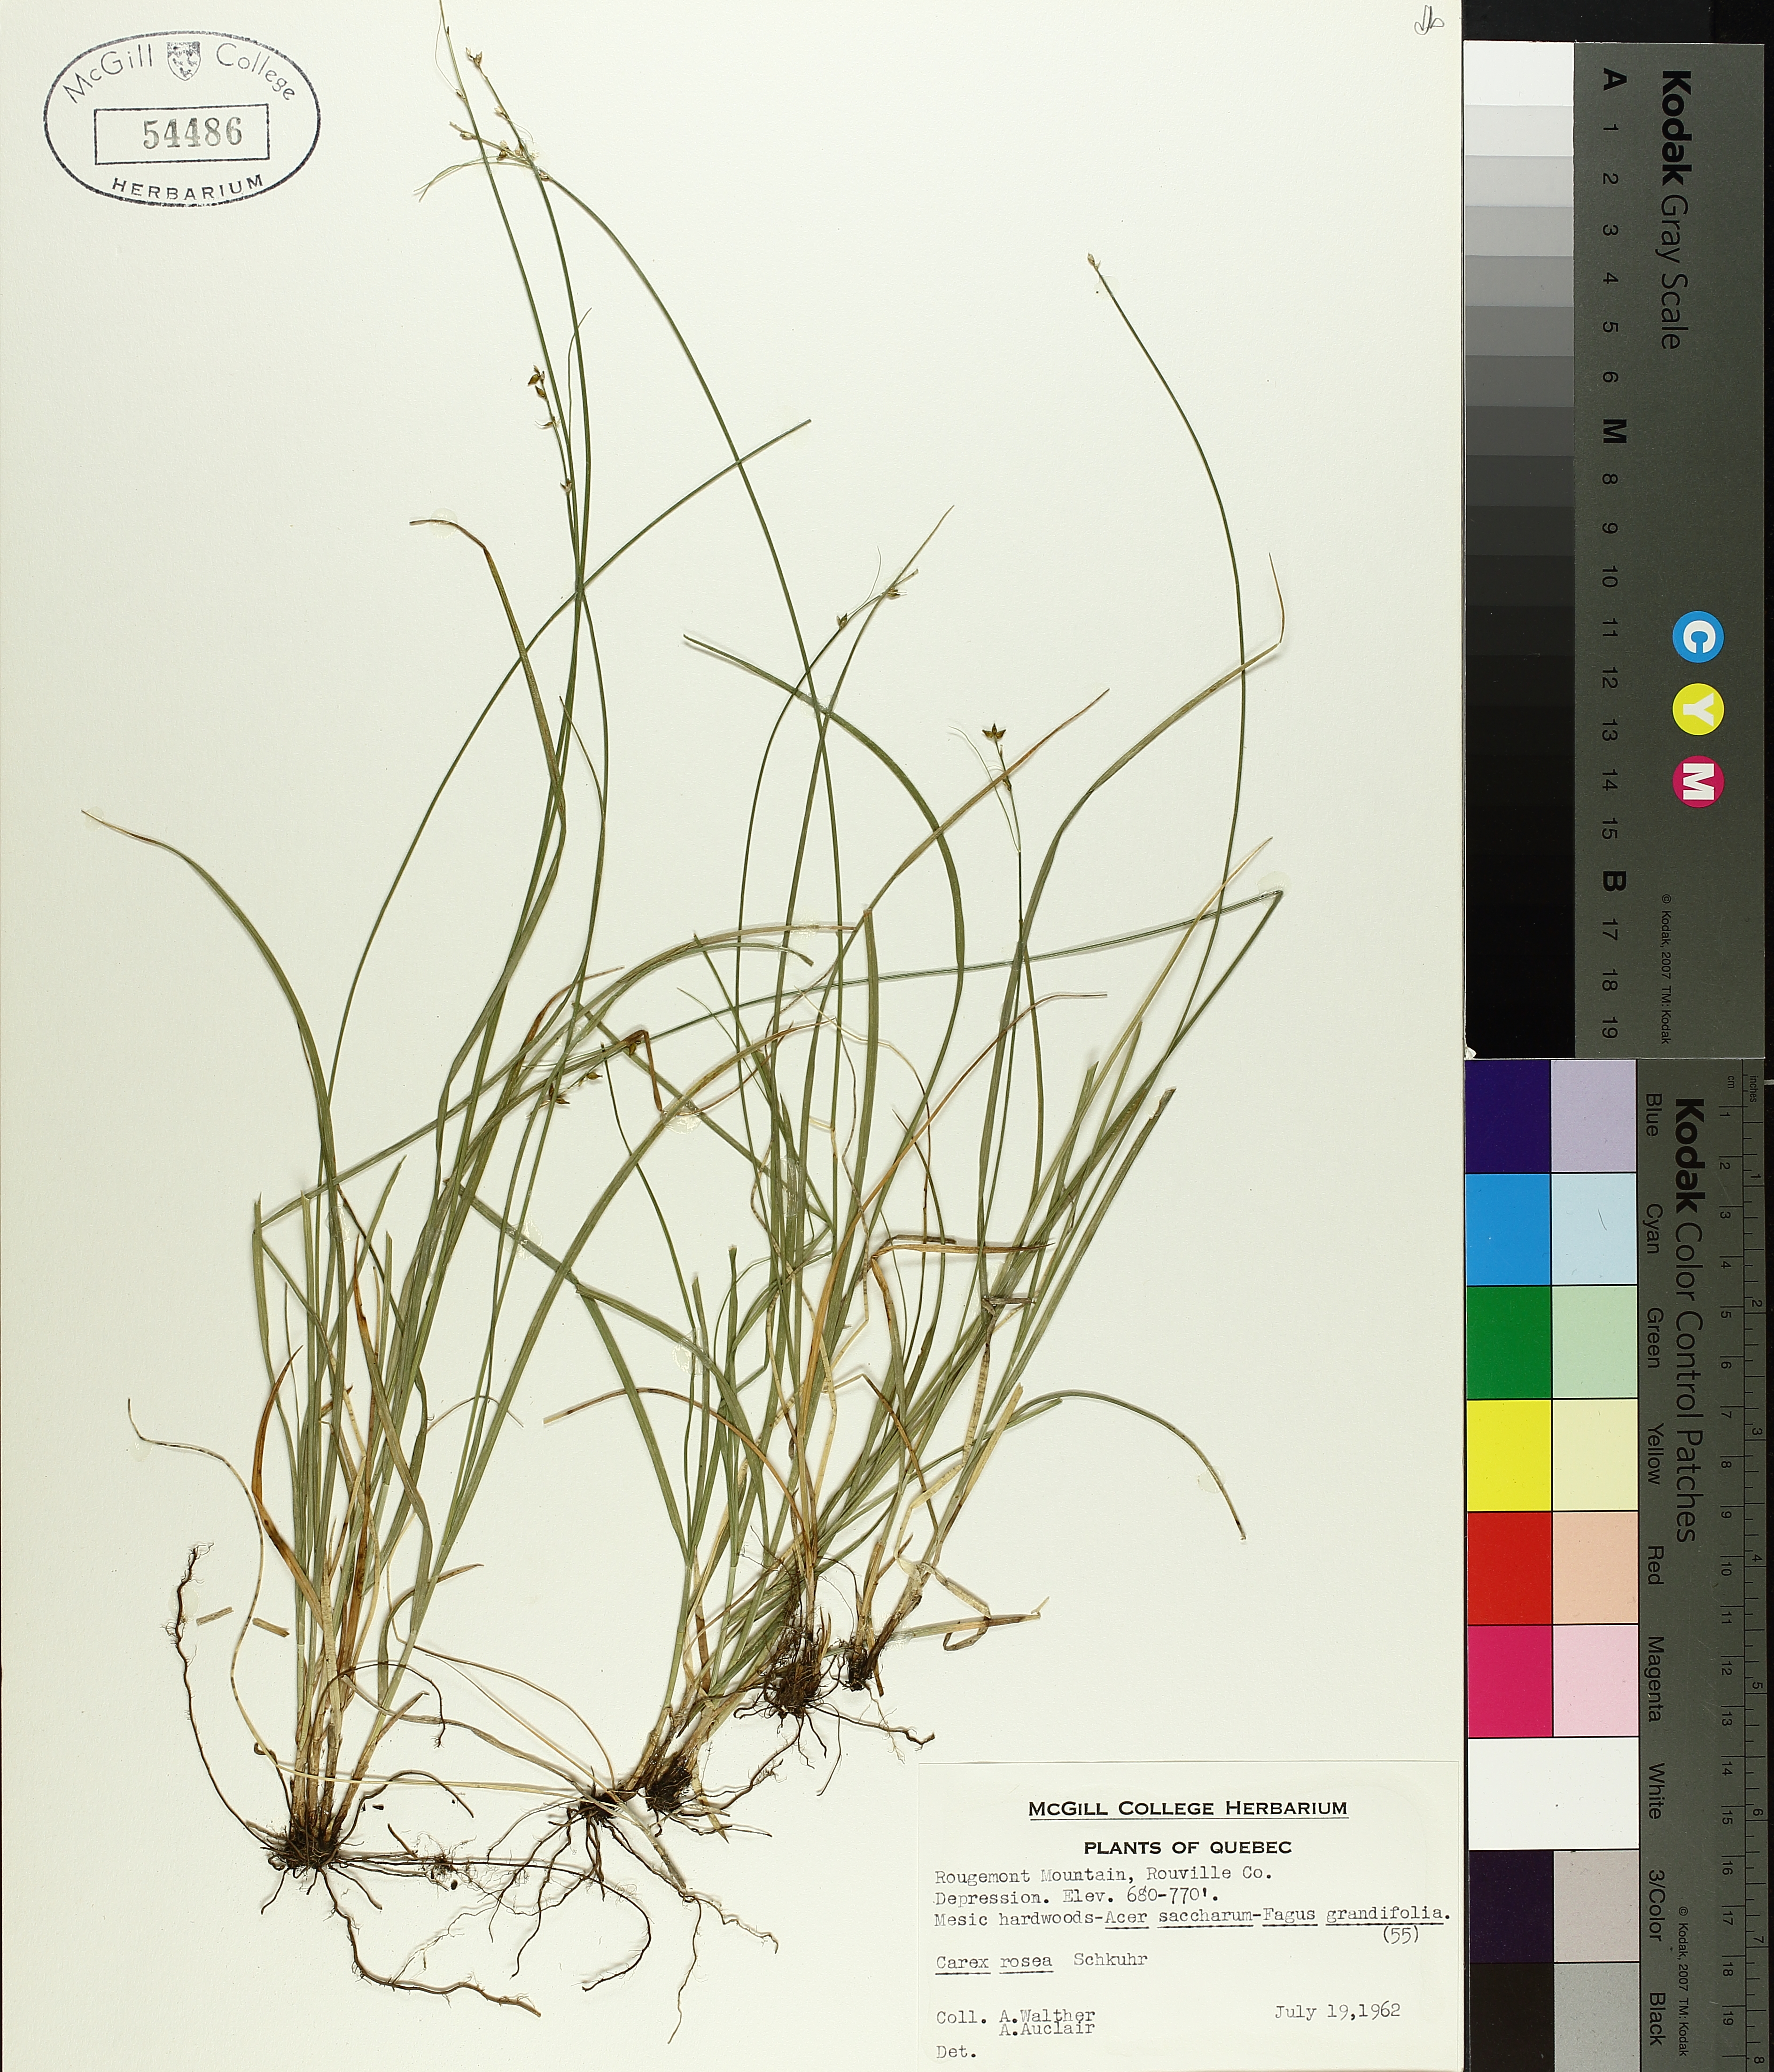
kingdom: Plantae
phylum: Tracheophyta
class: Liliopsida
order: Poales
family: Cyperaceae
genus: Carex
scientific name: Carex rosea
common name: Curly-styled wood sedge
